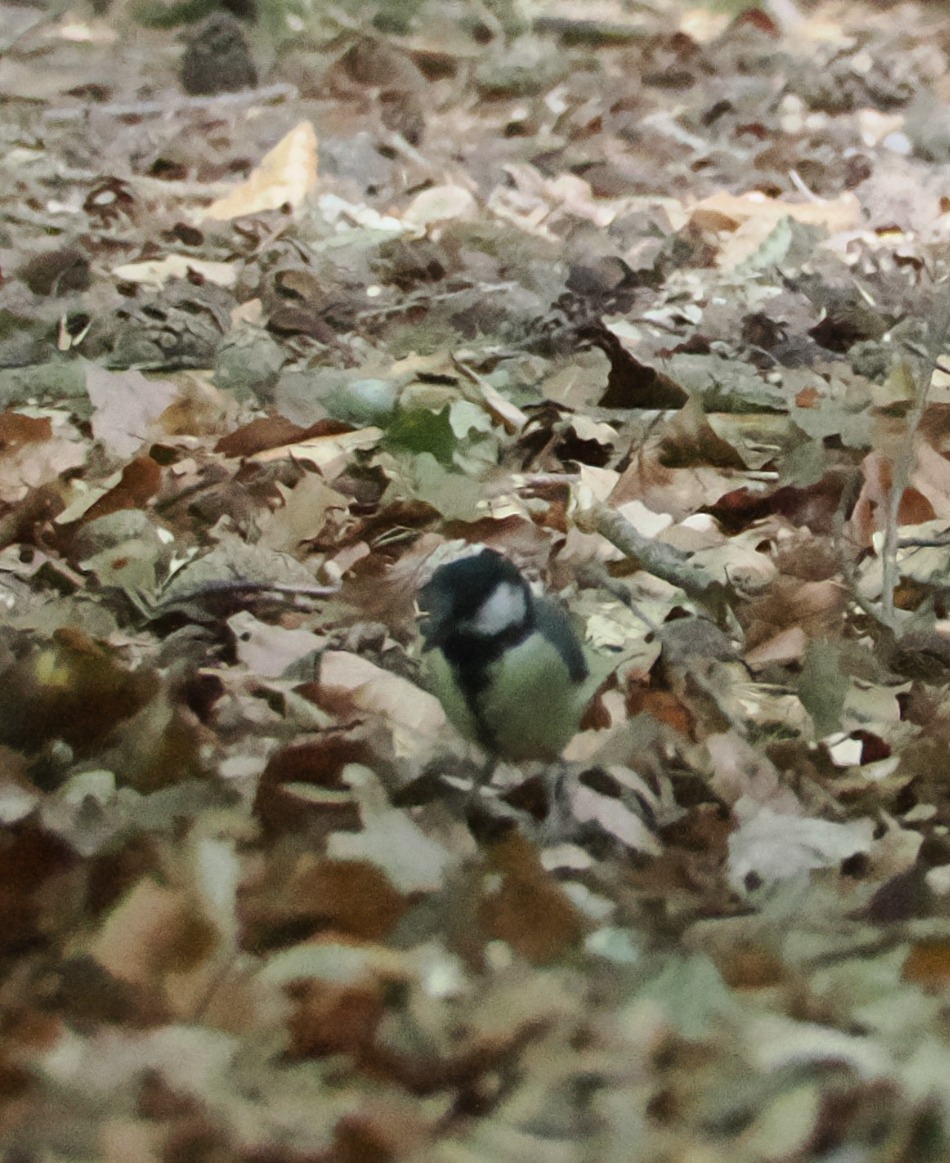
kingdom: Animalia
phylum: Chordata
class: Aves
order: Passeriformes
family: Paridae
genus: Parus
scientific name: Parus major
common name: Musvit
